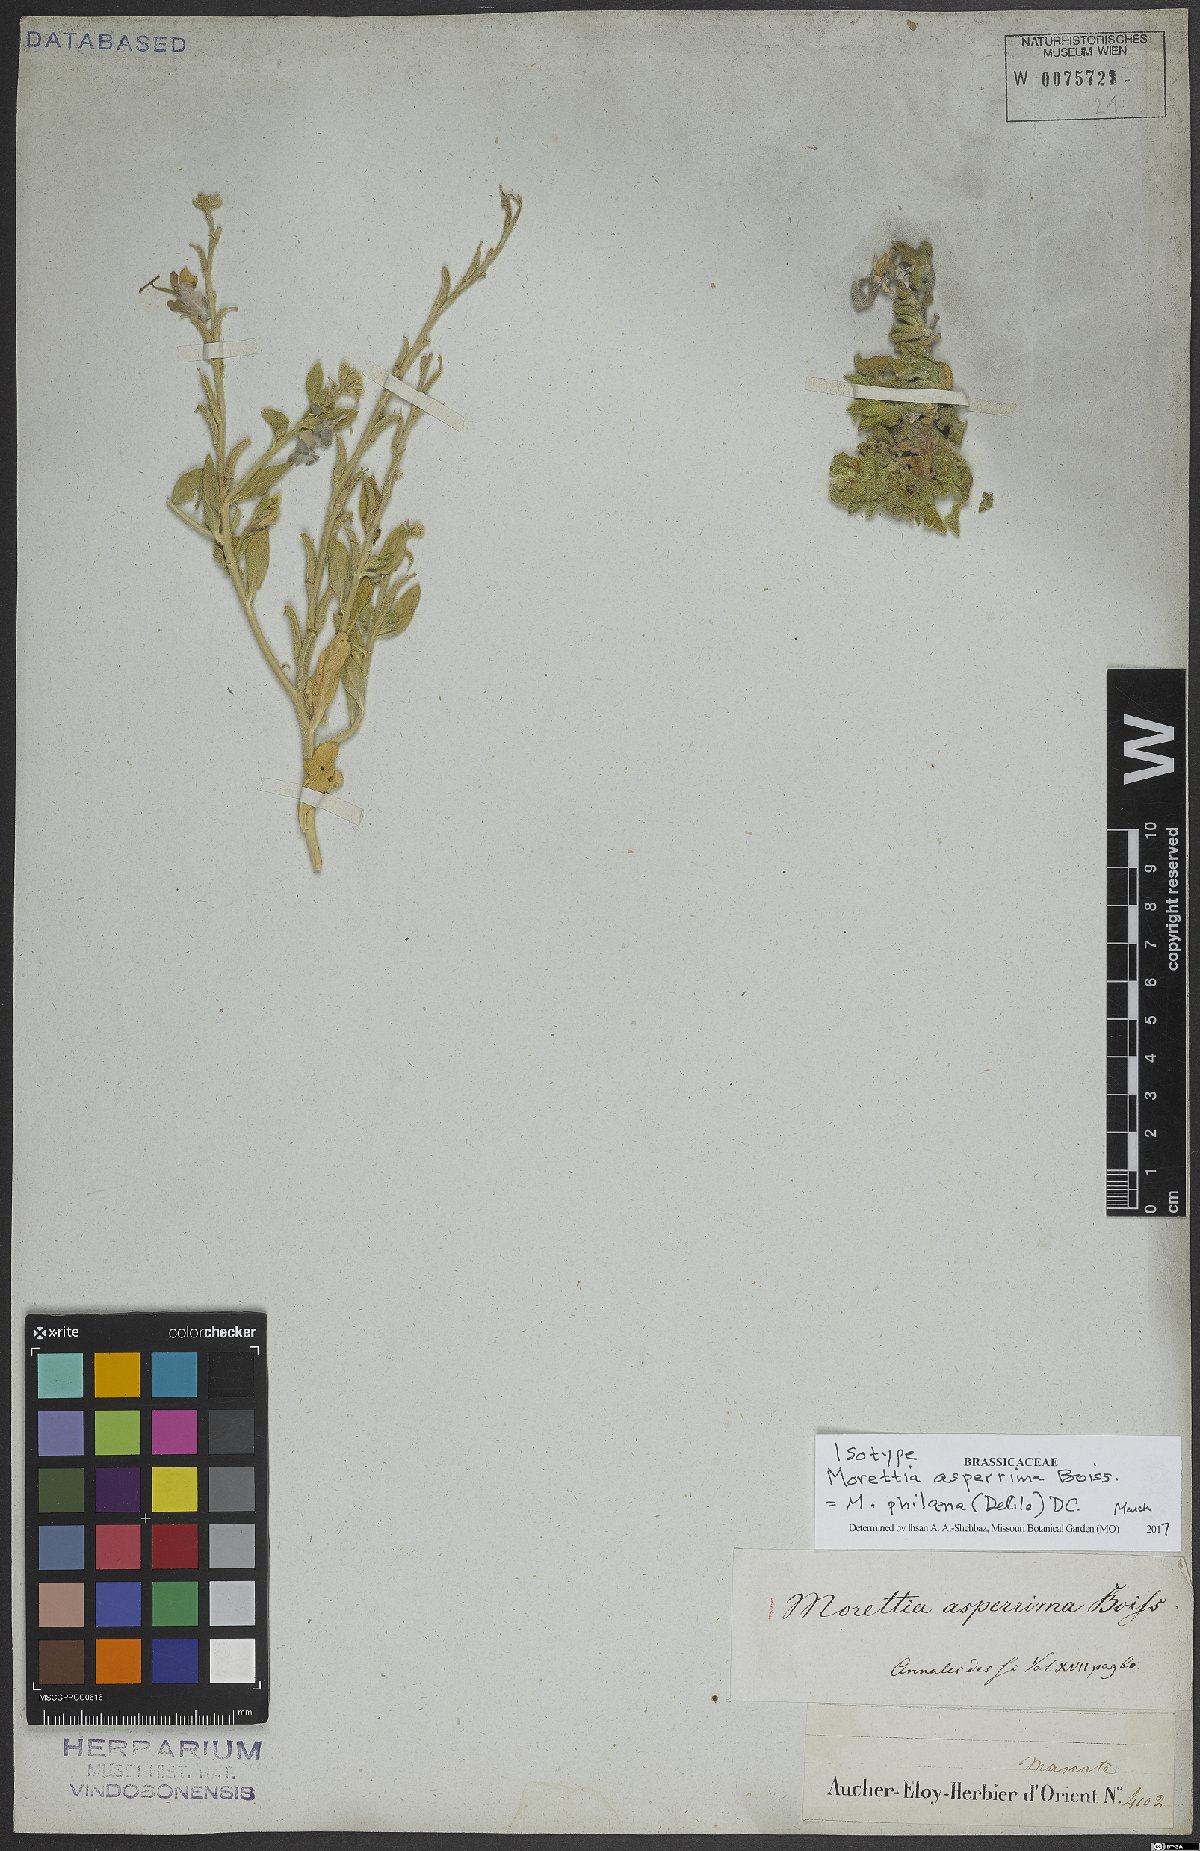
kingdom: Plantae
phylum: Tracheophyta
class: Magnoliopsida
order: Brassicales
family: Brassicaceae
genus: Morettia
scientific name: Morettia philaeana
